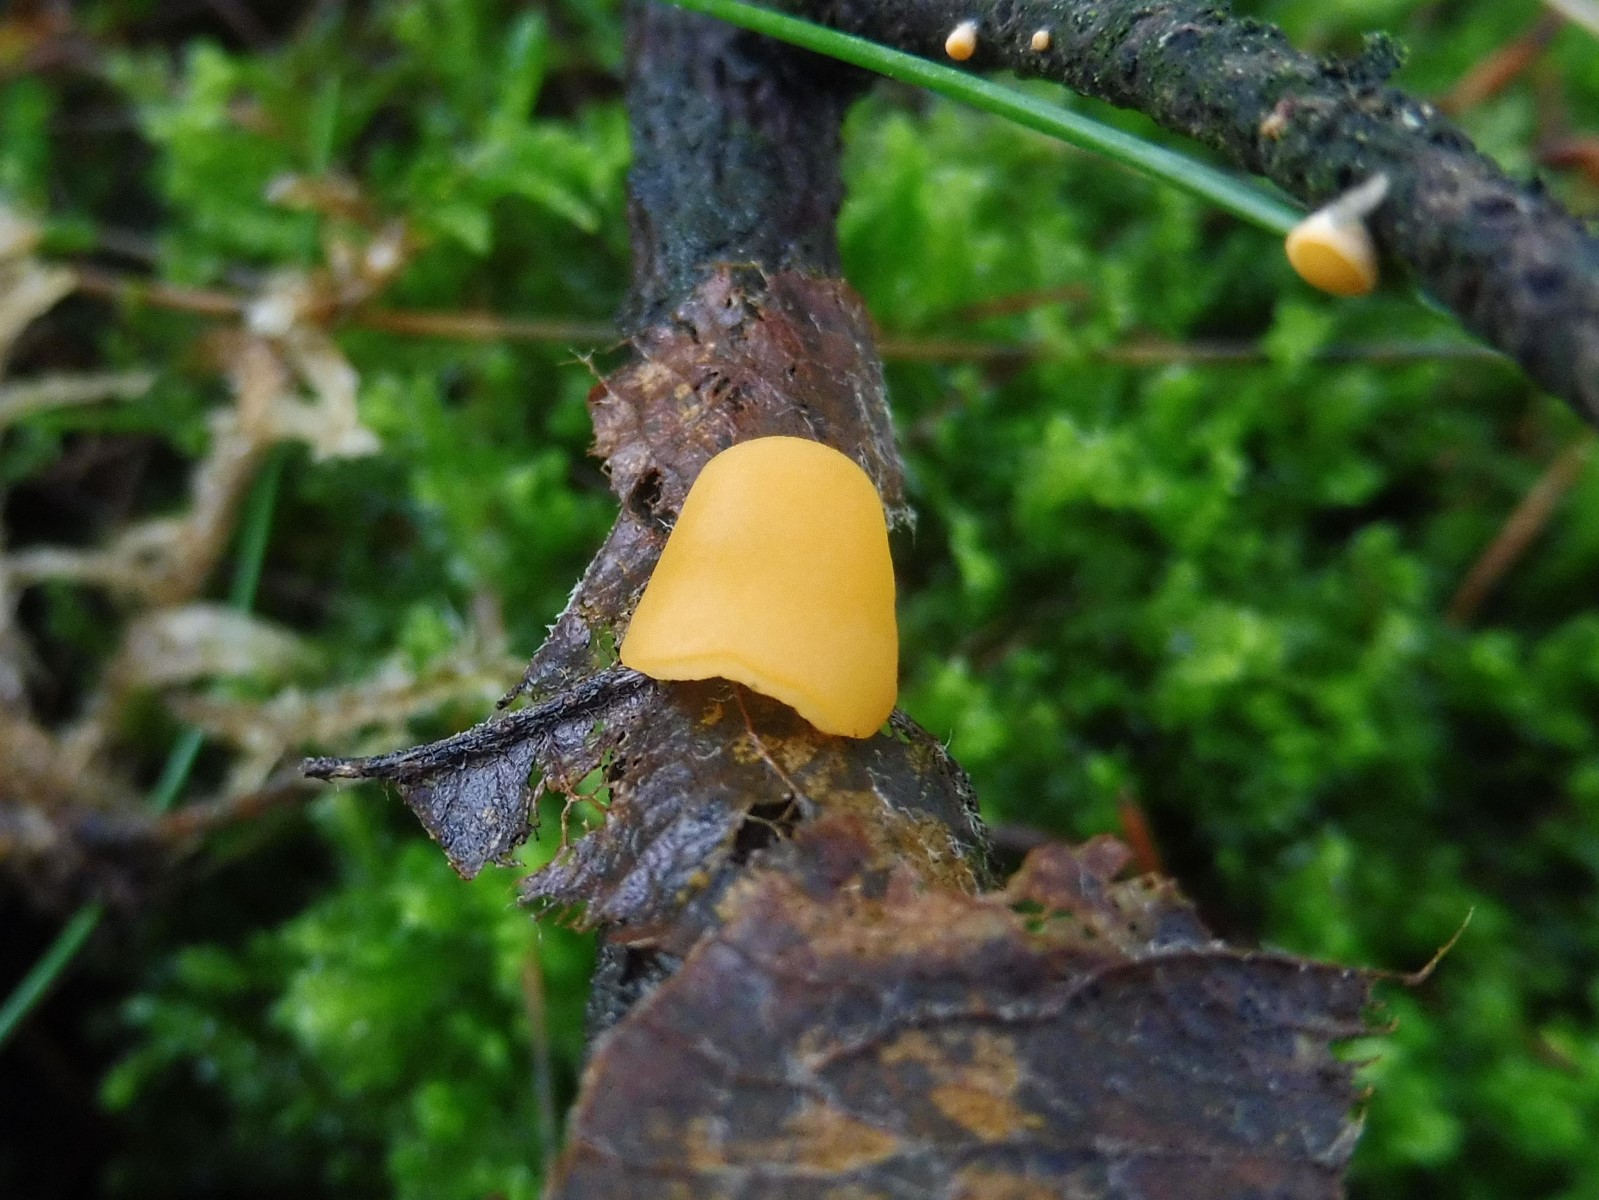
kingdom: Fungi
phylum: Ascomycota
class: Pezizomycetes
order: Pezizales
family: Sarcoscyphaceae
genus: Pithya
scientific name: Pithya vulgaris
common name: stor dukatbæger
